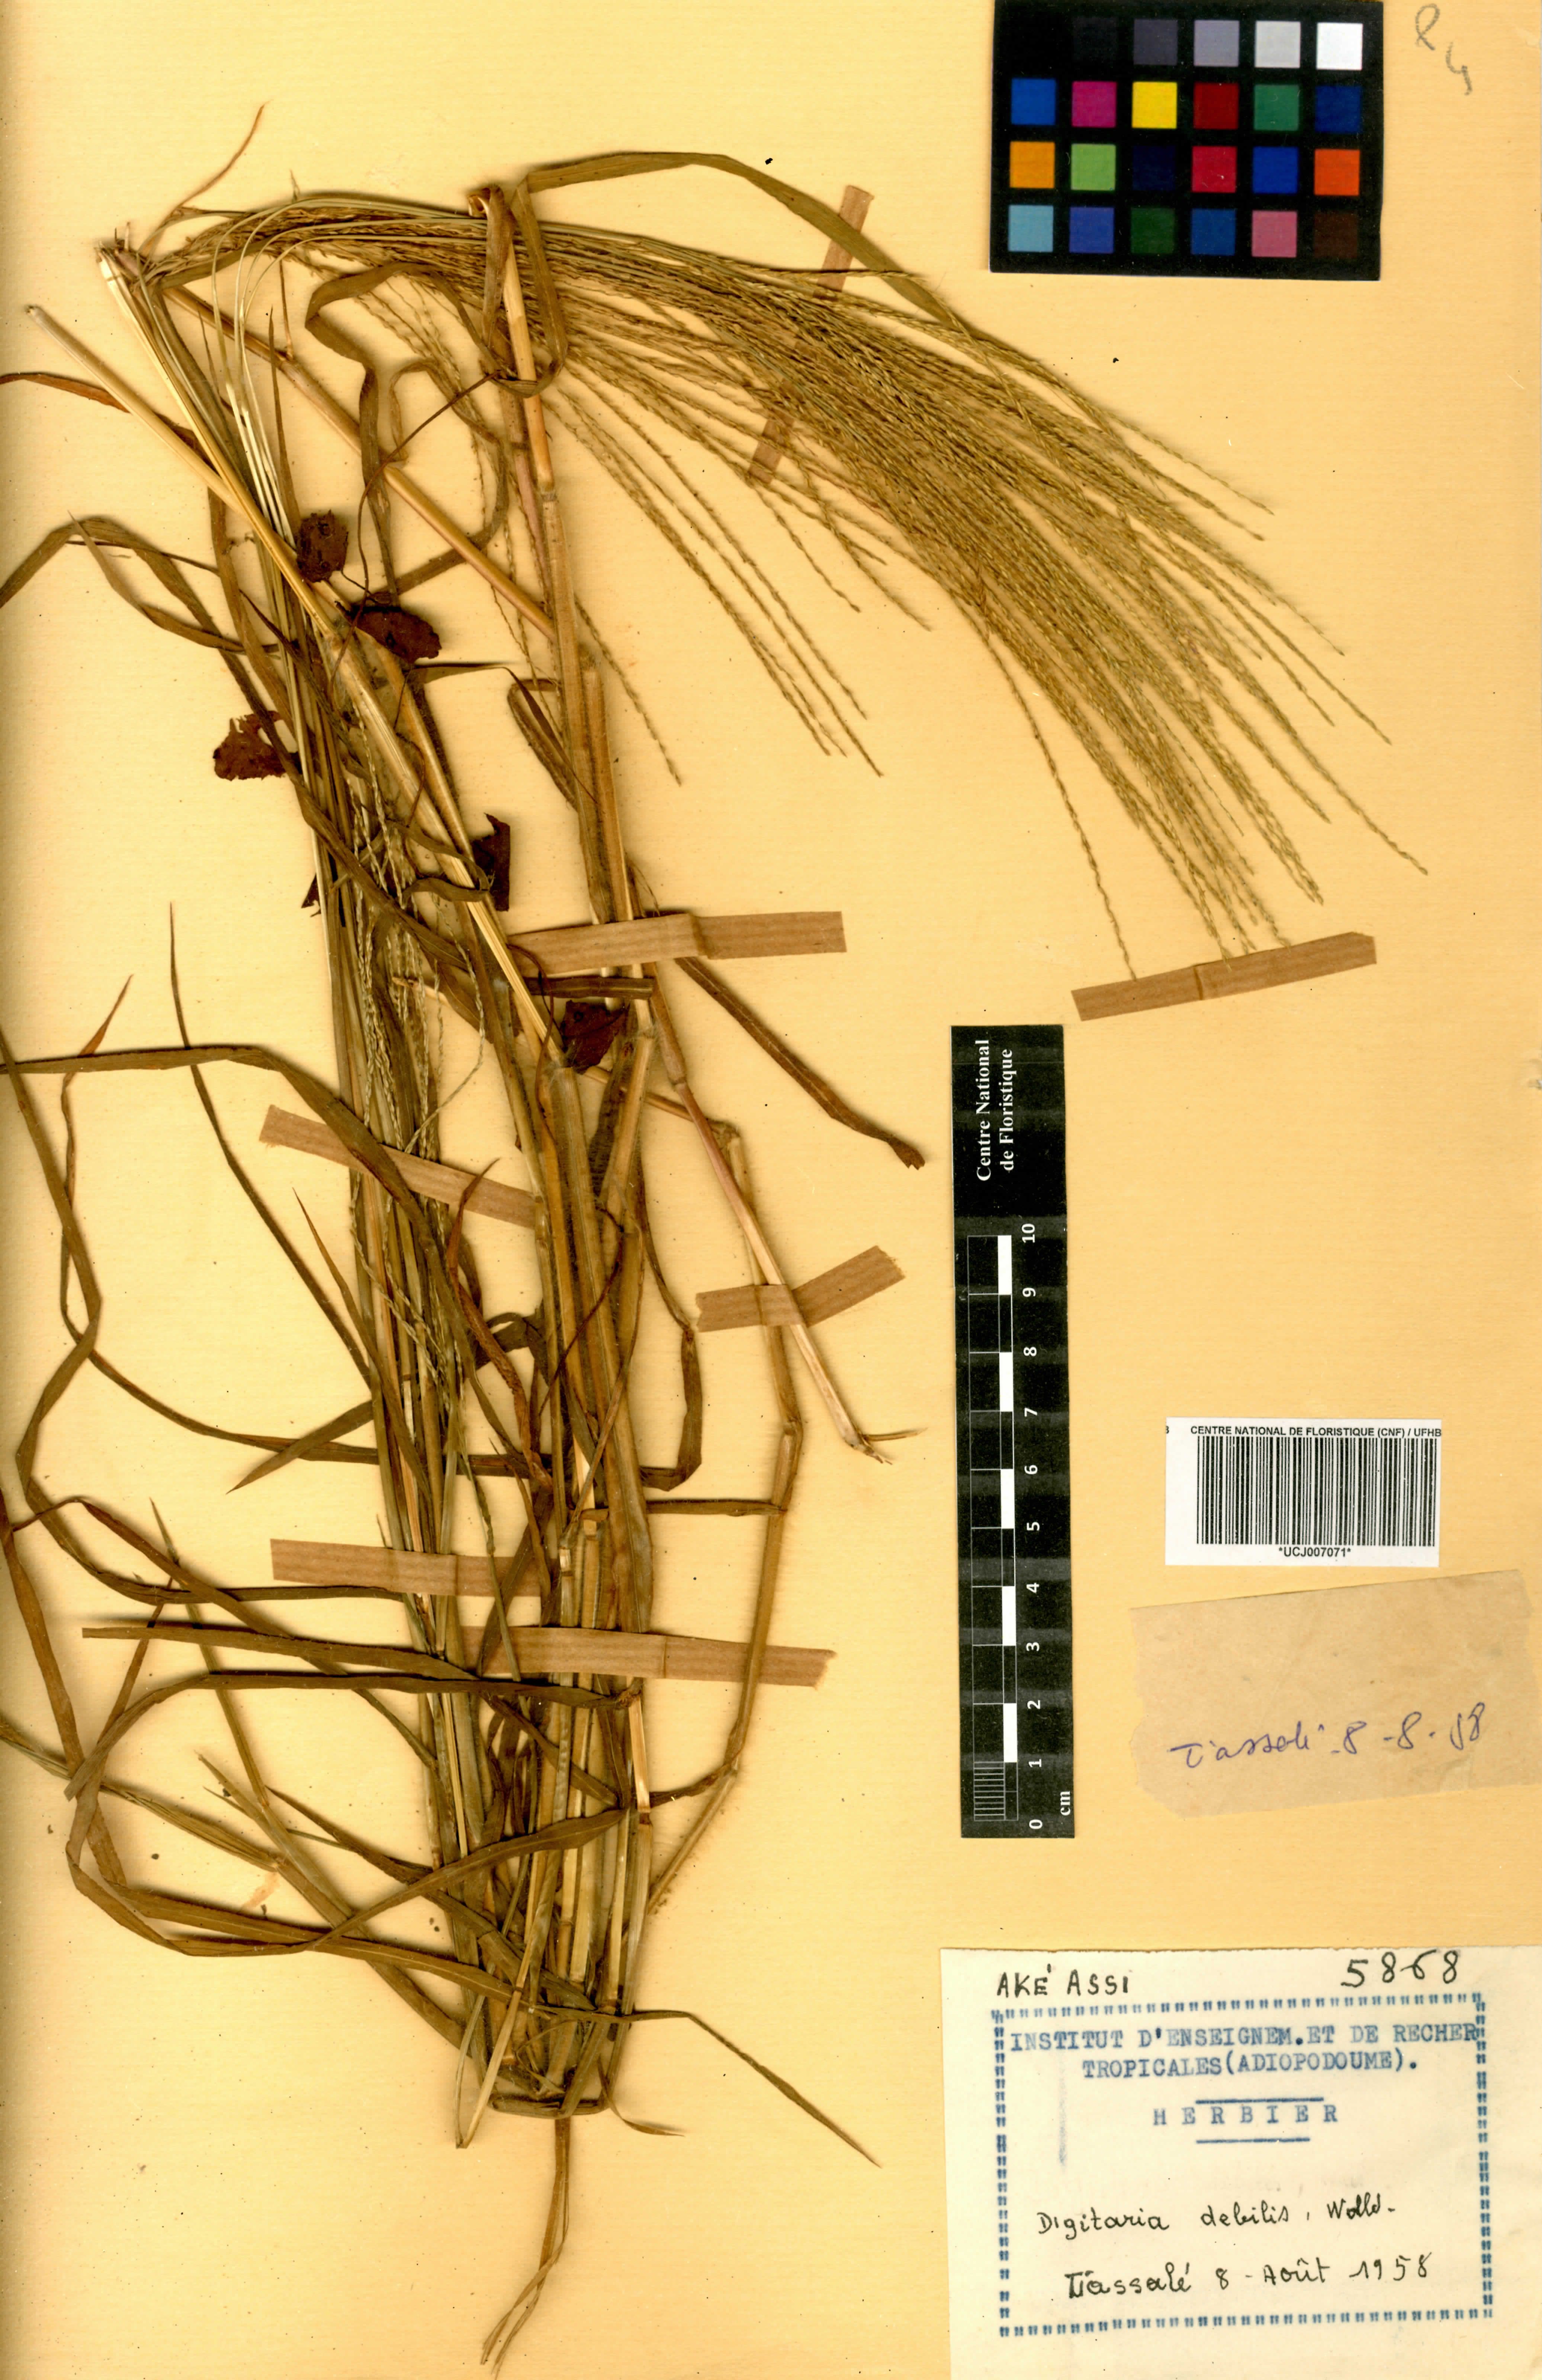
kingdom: Plantae
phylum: Tracheophyta
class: Liliopsida
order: Poales
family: Poaceae
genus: Digitaria
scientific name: Digitaria debilis
